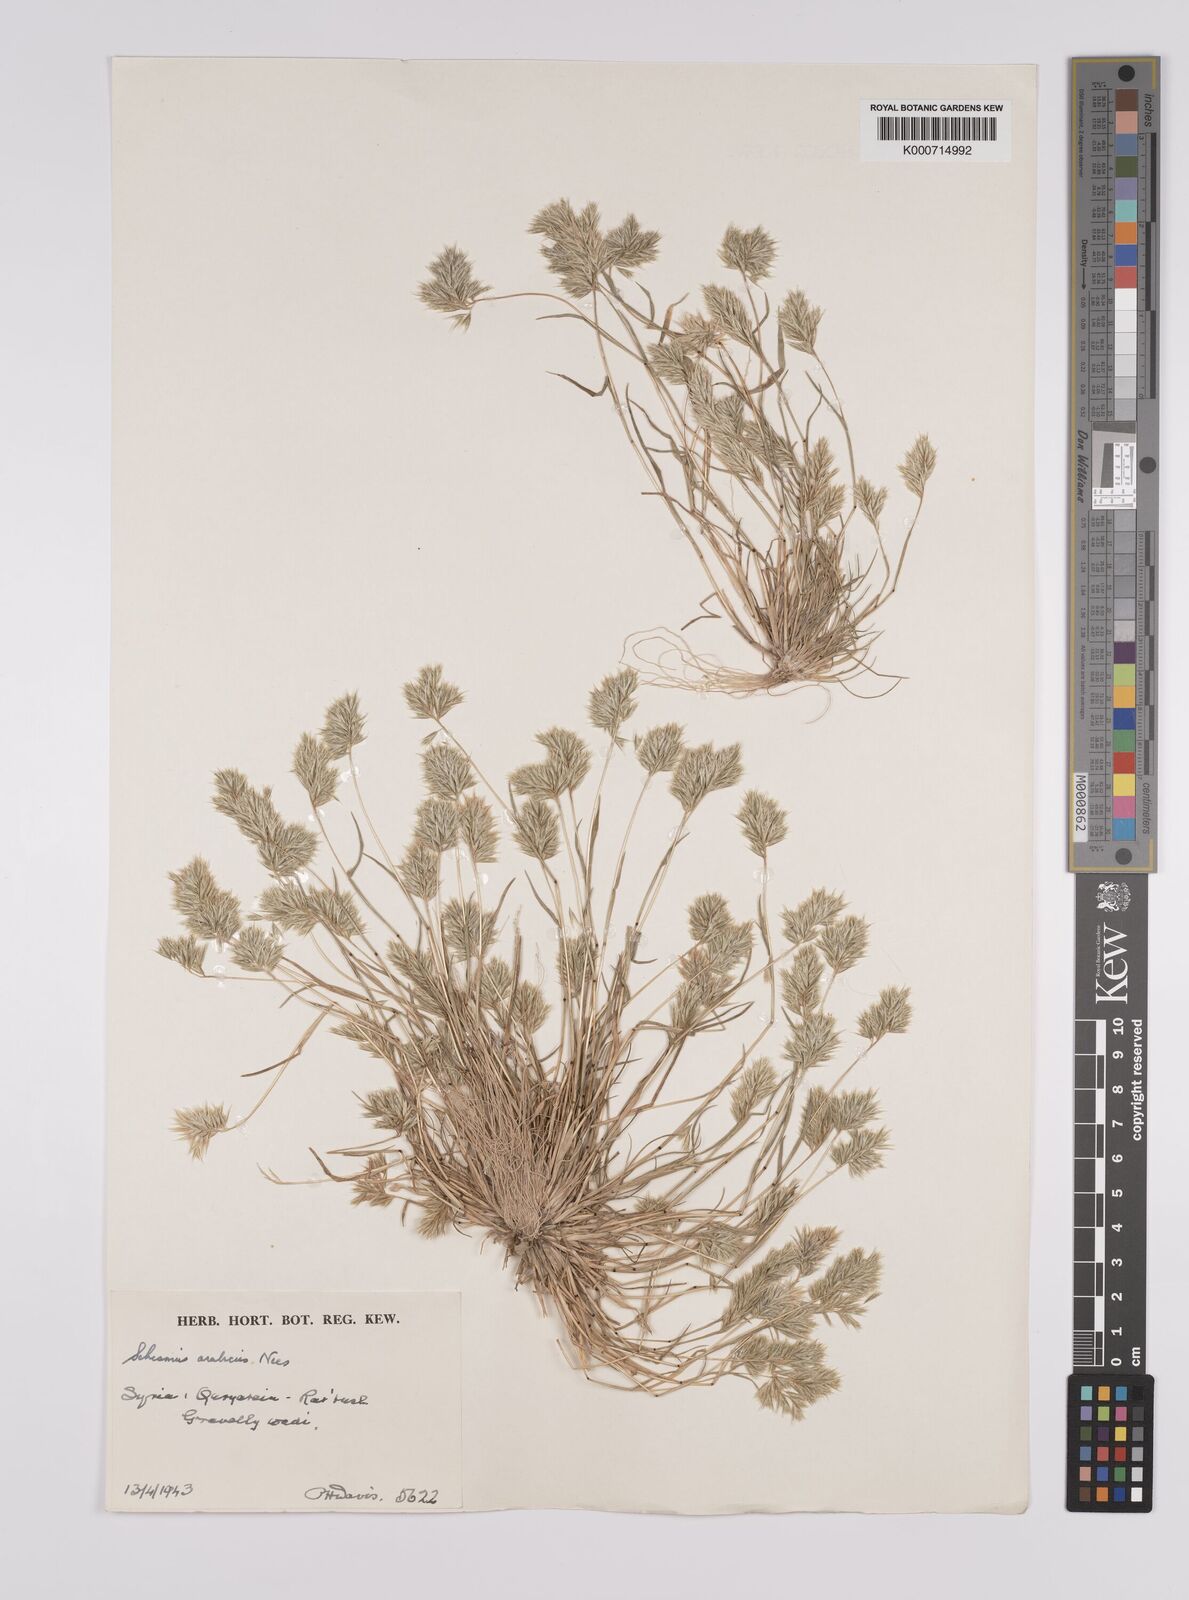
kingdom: Plantae
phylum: Tracheophyta
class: Liliopsida
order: Poales
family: Poaceae
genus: Schismus
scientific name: Schismus arabicus
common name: Arabian schismus
